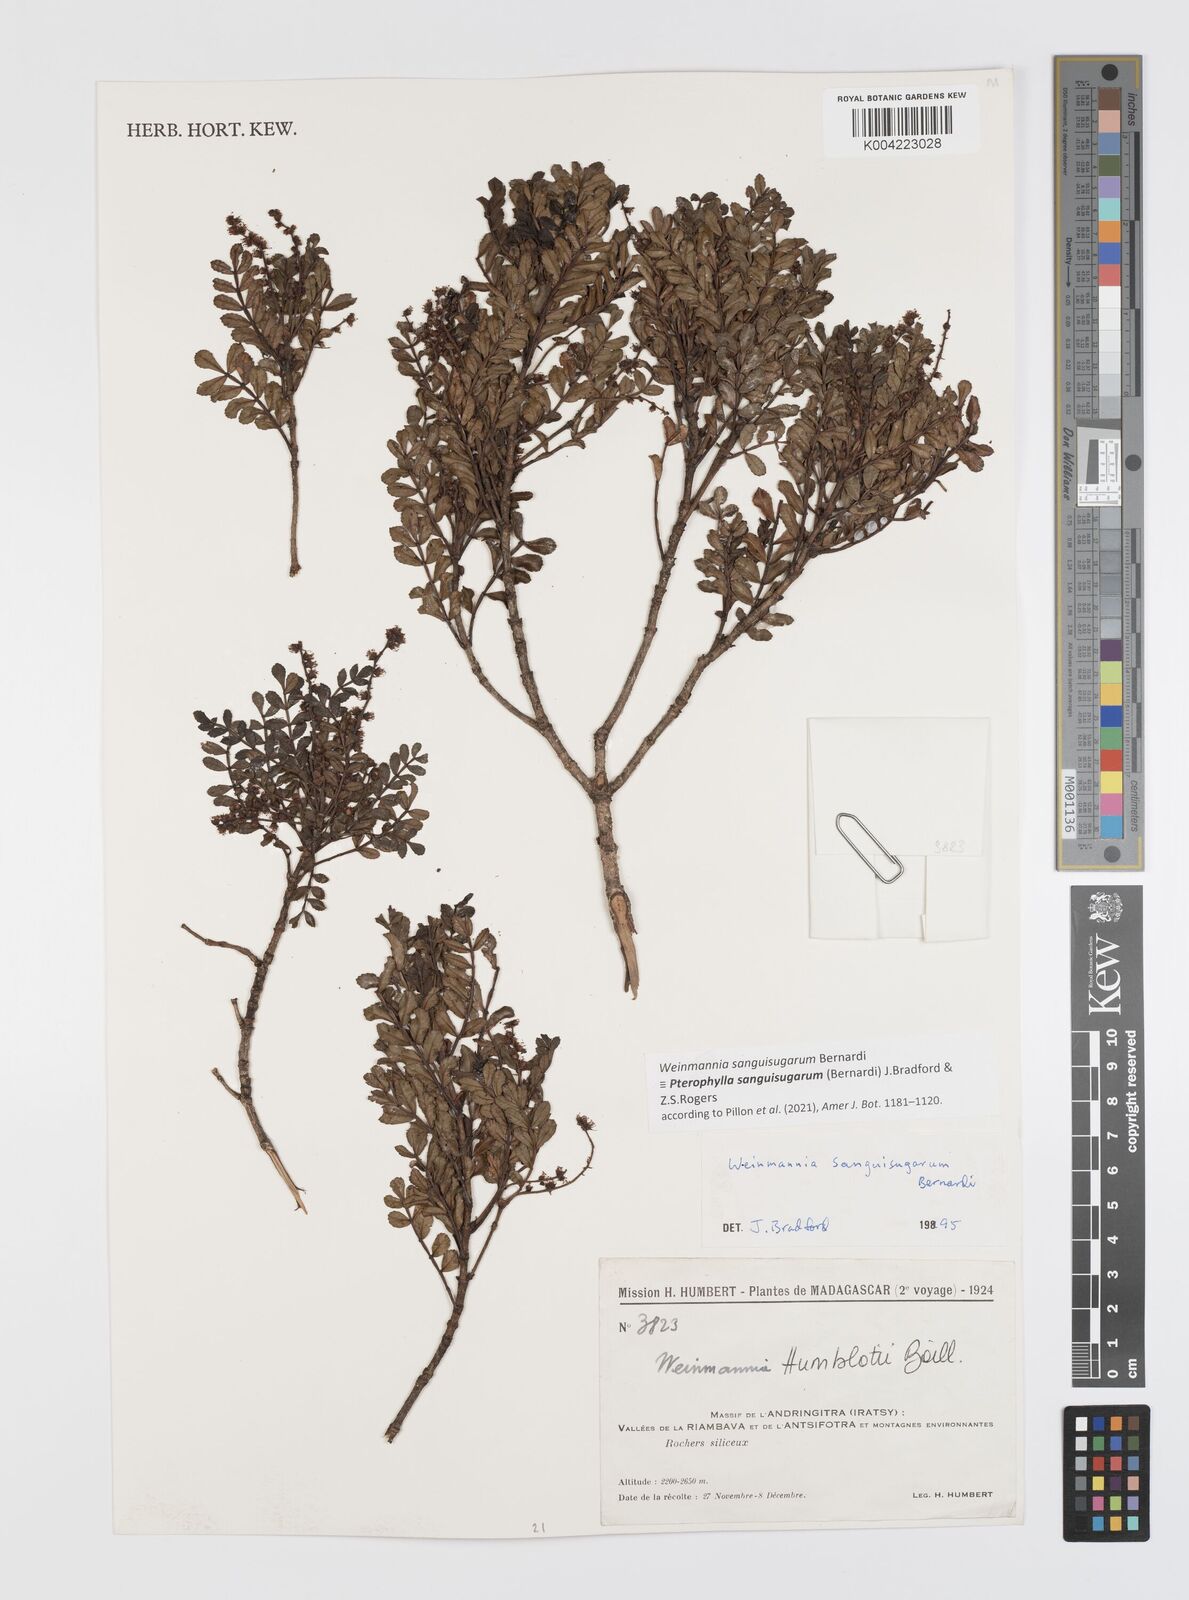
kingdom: Plantae
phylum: Tracheophyta
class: Magnoliopsida
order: Oxalidales
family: Cunoniaceae
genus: Pterophylla
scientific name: Pterophylla sanguisugarum
